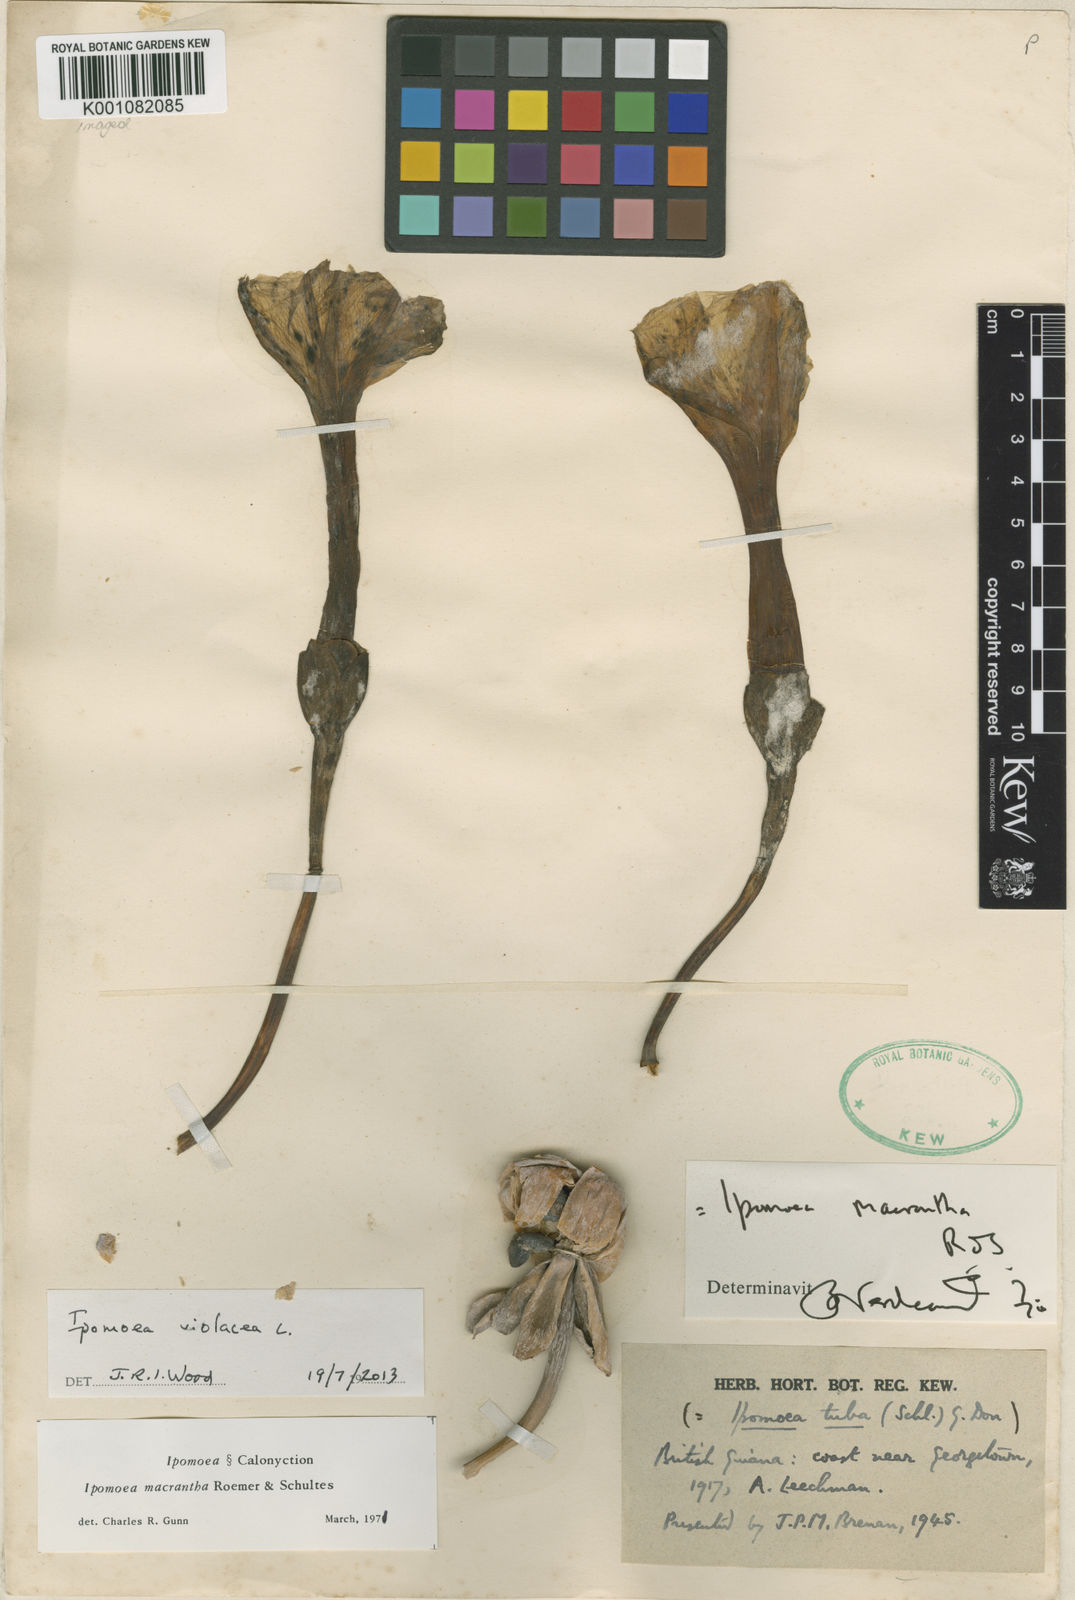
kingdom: Plantae
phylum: Tracheophyta
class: Magnoliopsida
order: Solanales
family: Convolvulaceae
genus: Ipomoea
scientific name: Ipomoea violacea
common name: Beach moonflower
